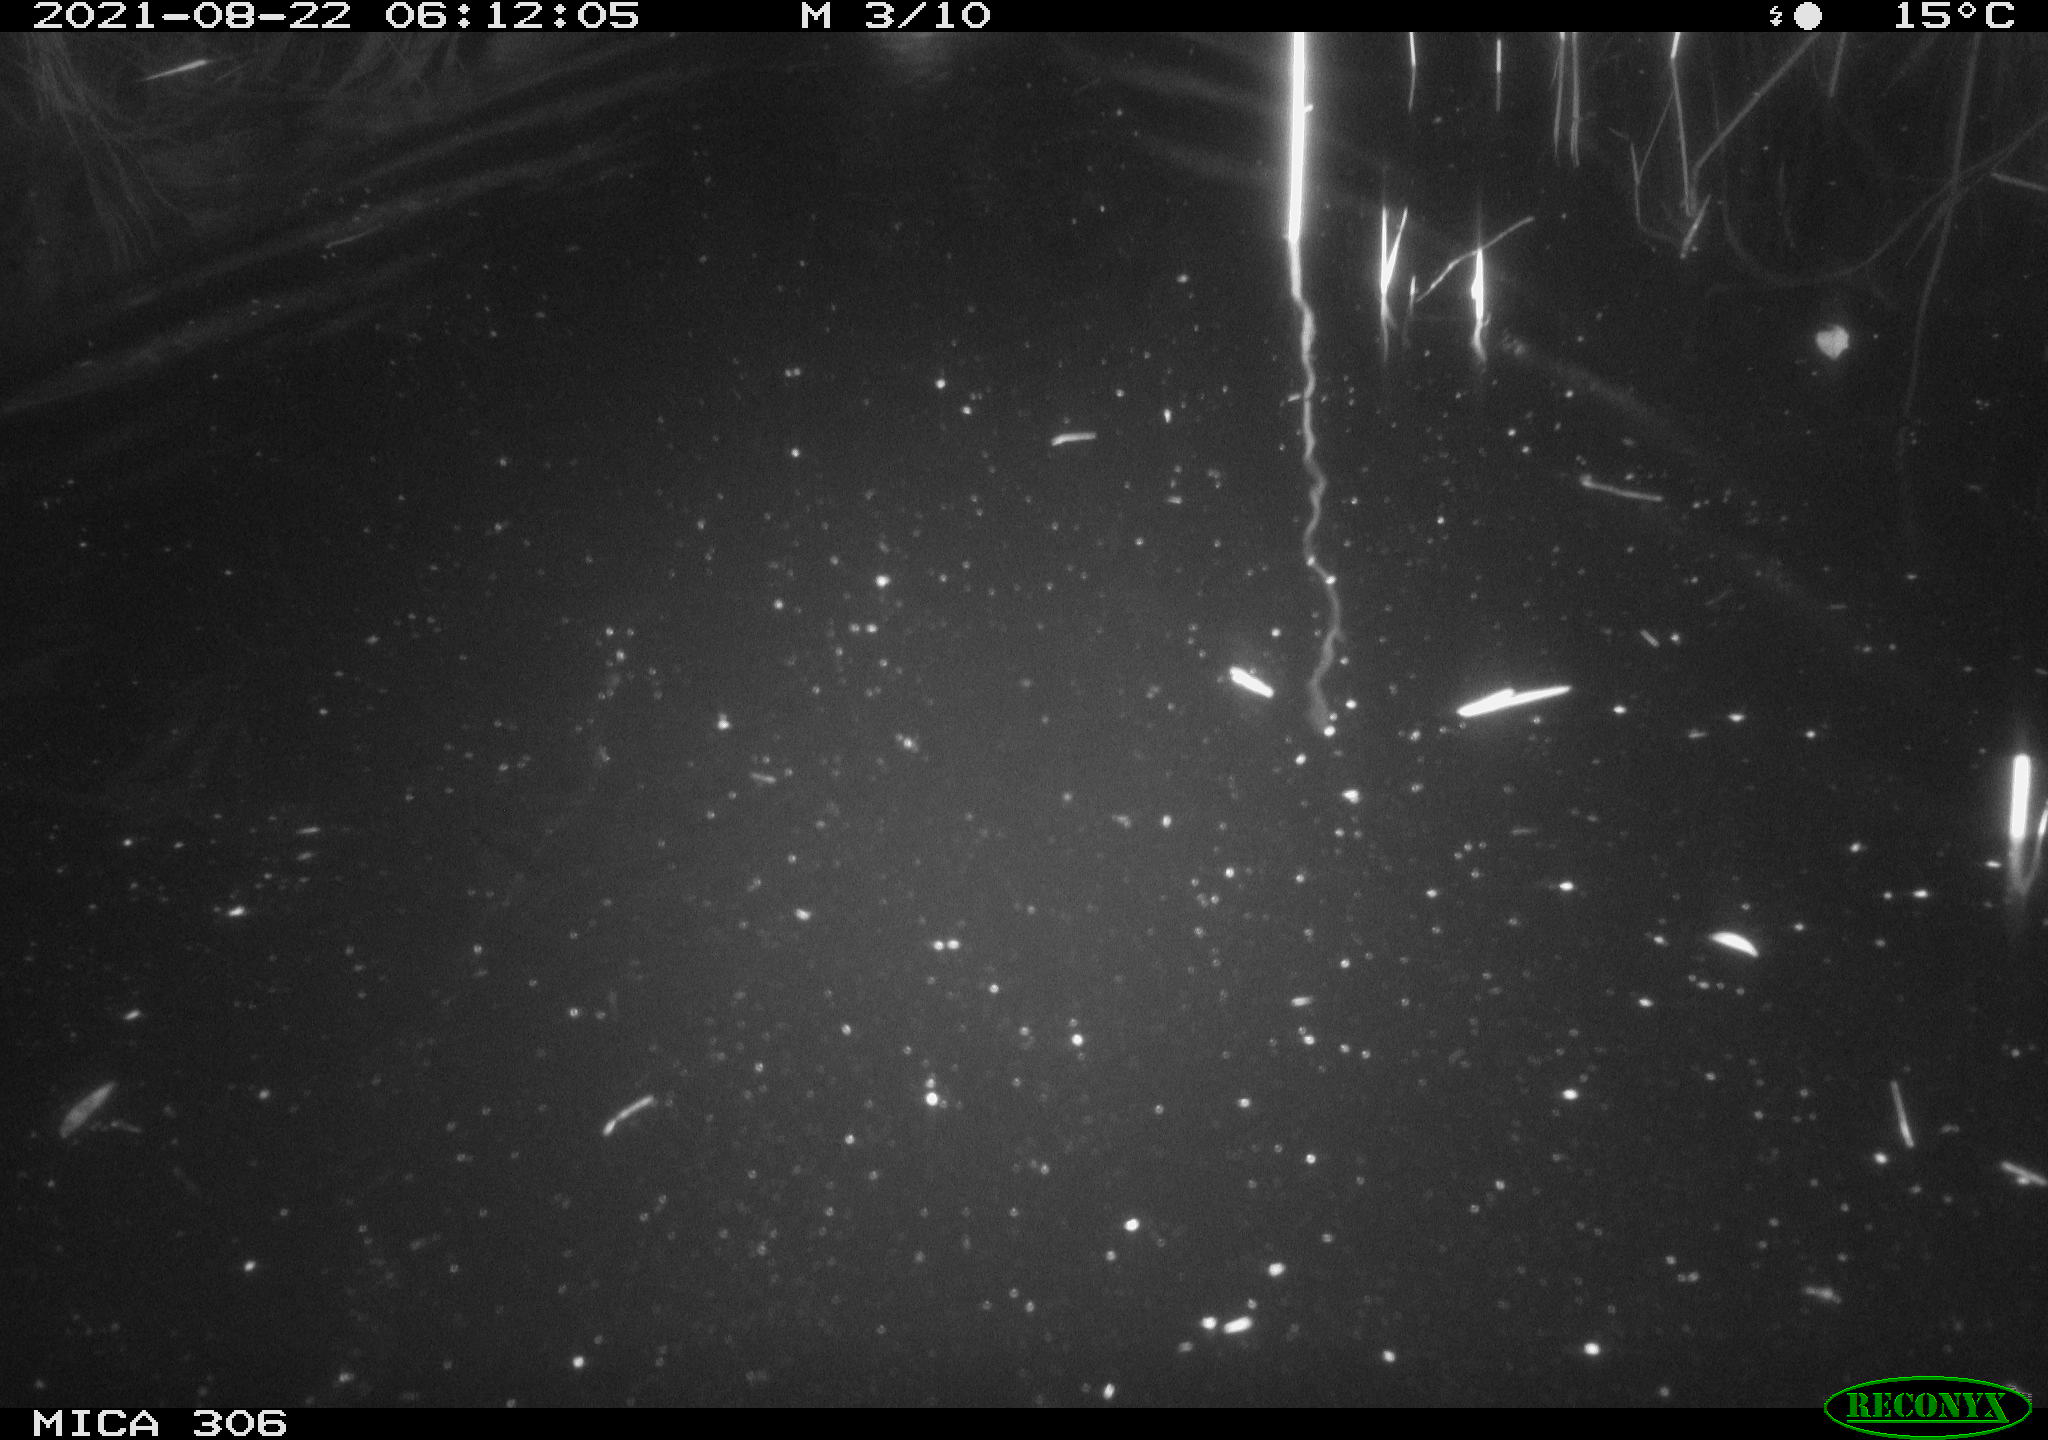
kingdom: Animalia
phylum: Chordata
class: Aves
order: Anseriformes
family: Anatidae
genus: Anas
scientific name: Anas platyrhynchos
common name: Mallard
